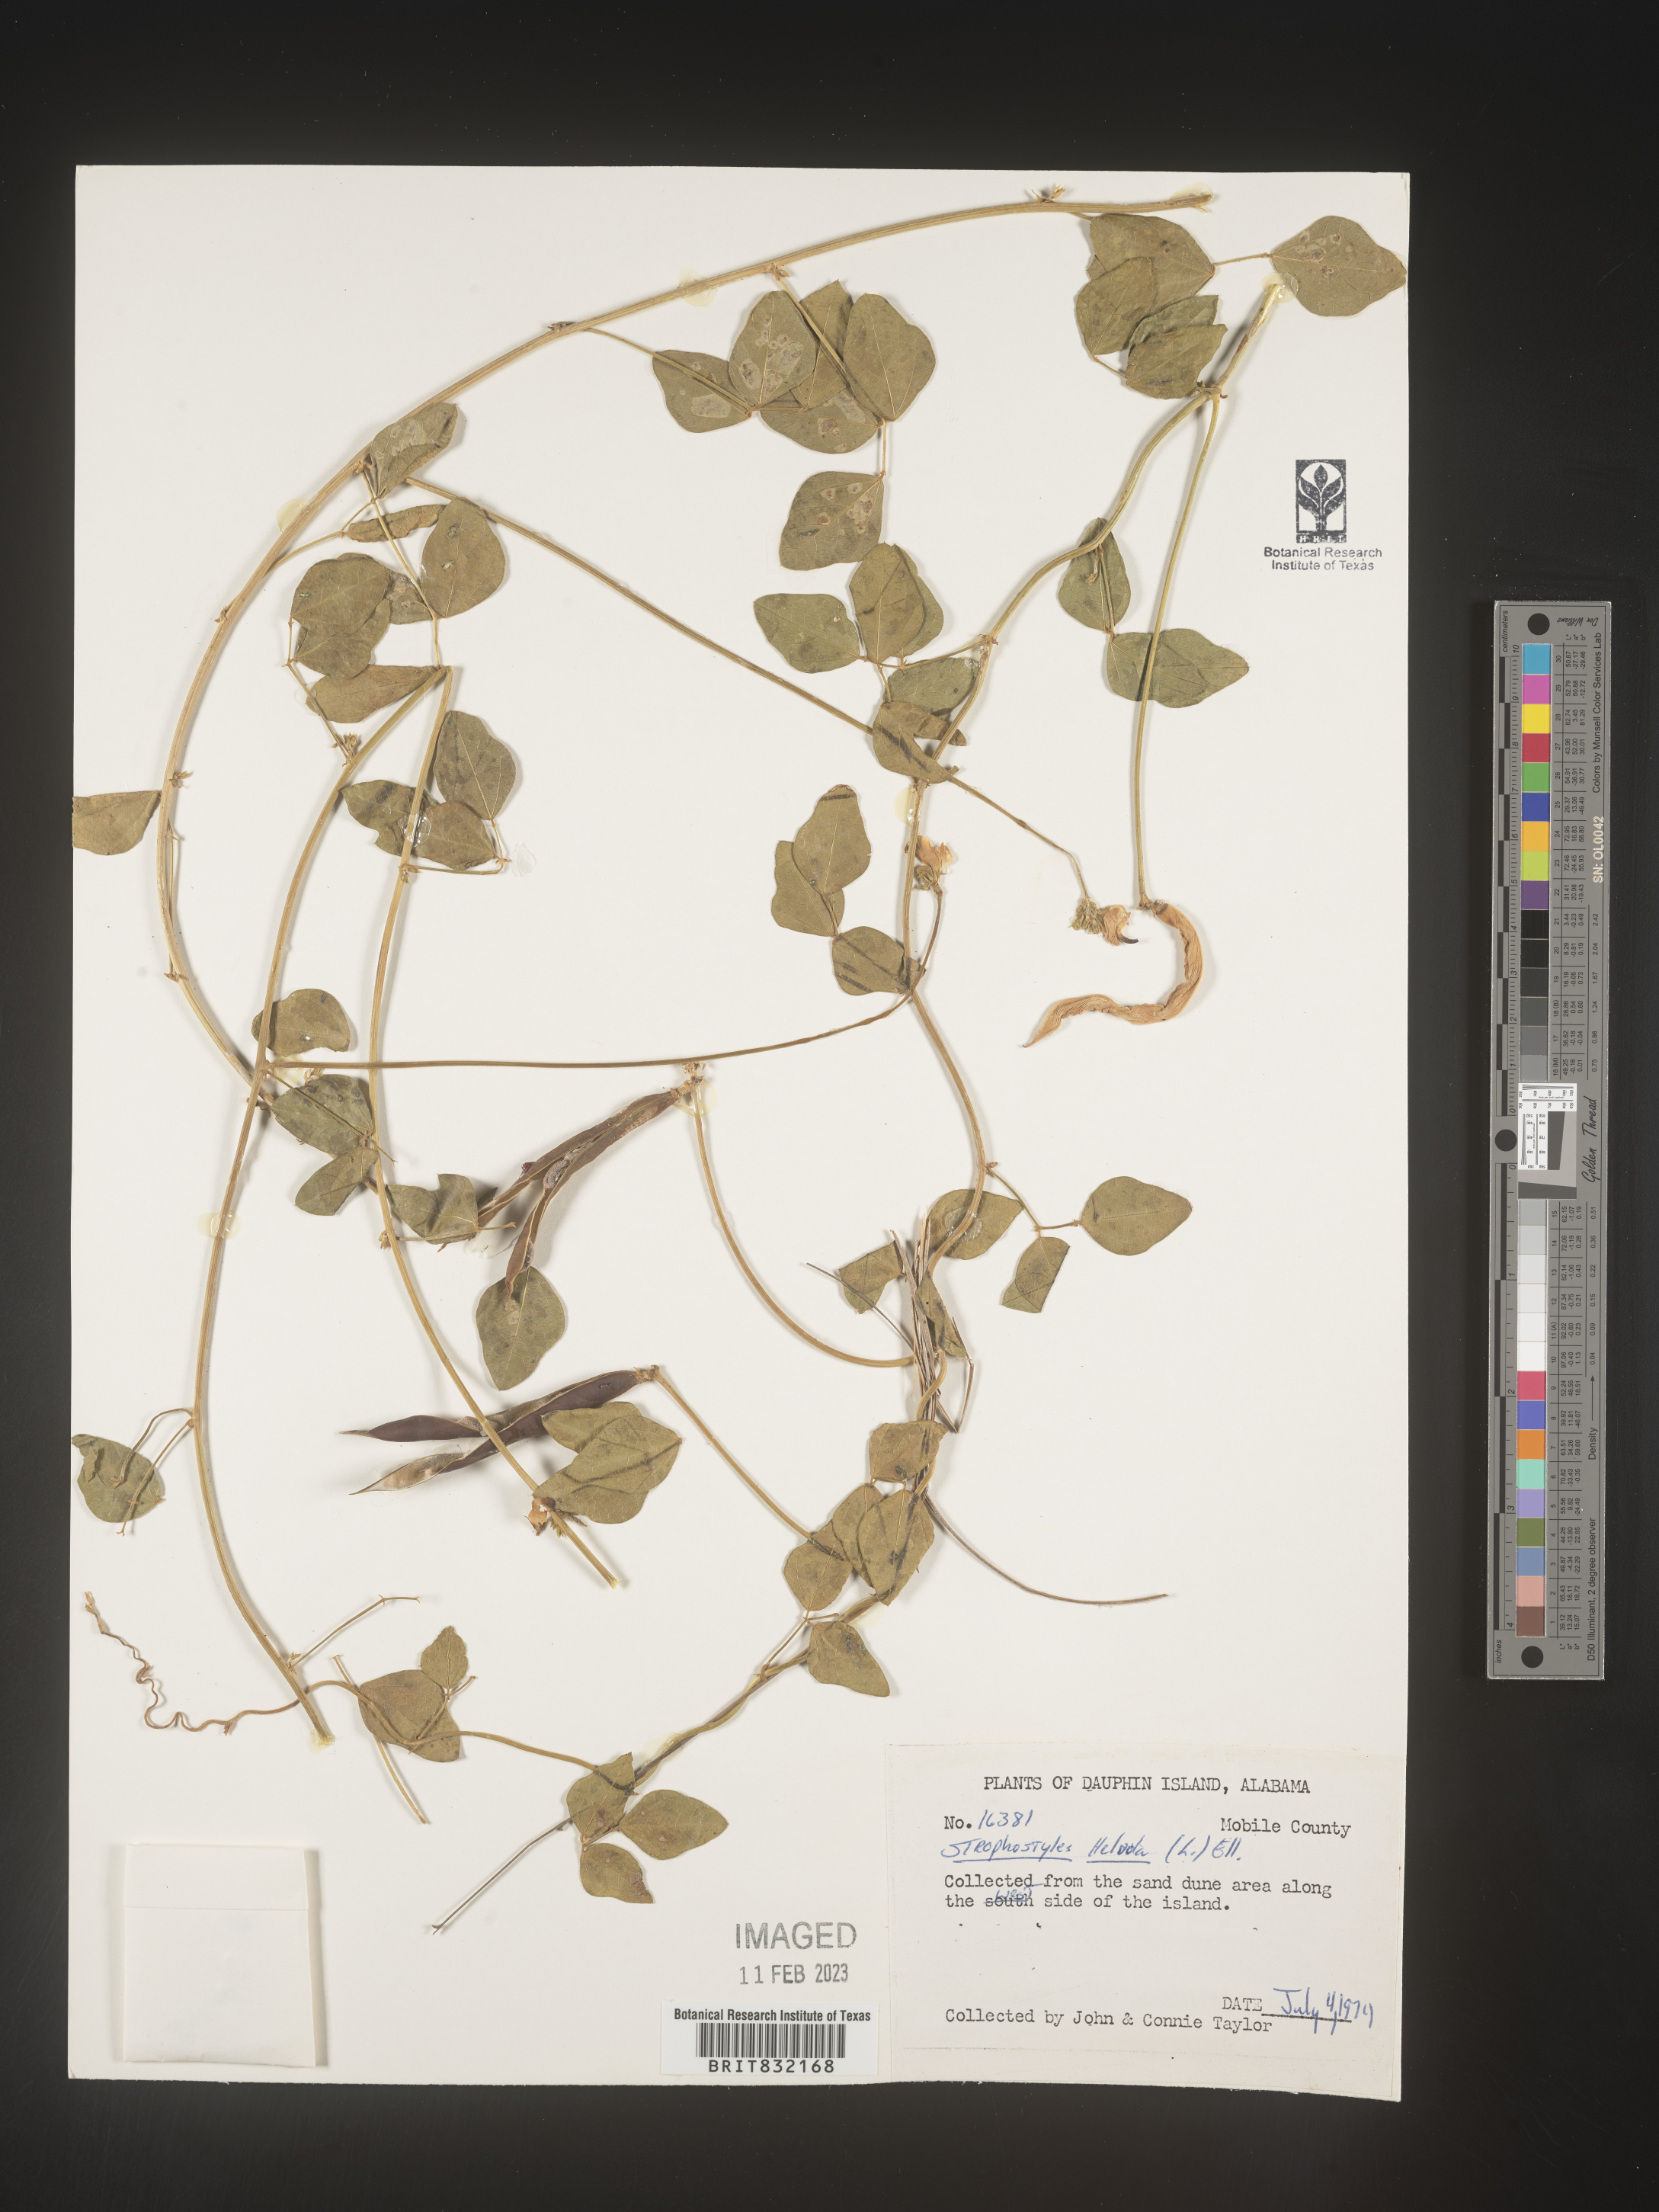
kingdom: Plantae
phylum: Tracheophyta
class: Magnoliopsida
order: Fabales
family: Fabaceae
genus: Strophostyles
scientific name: Strophostyles helvola
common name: Trailing wild bean
